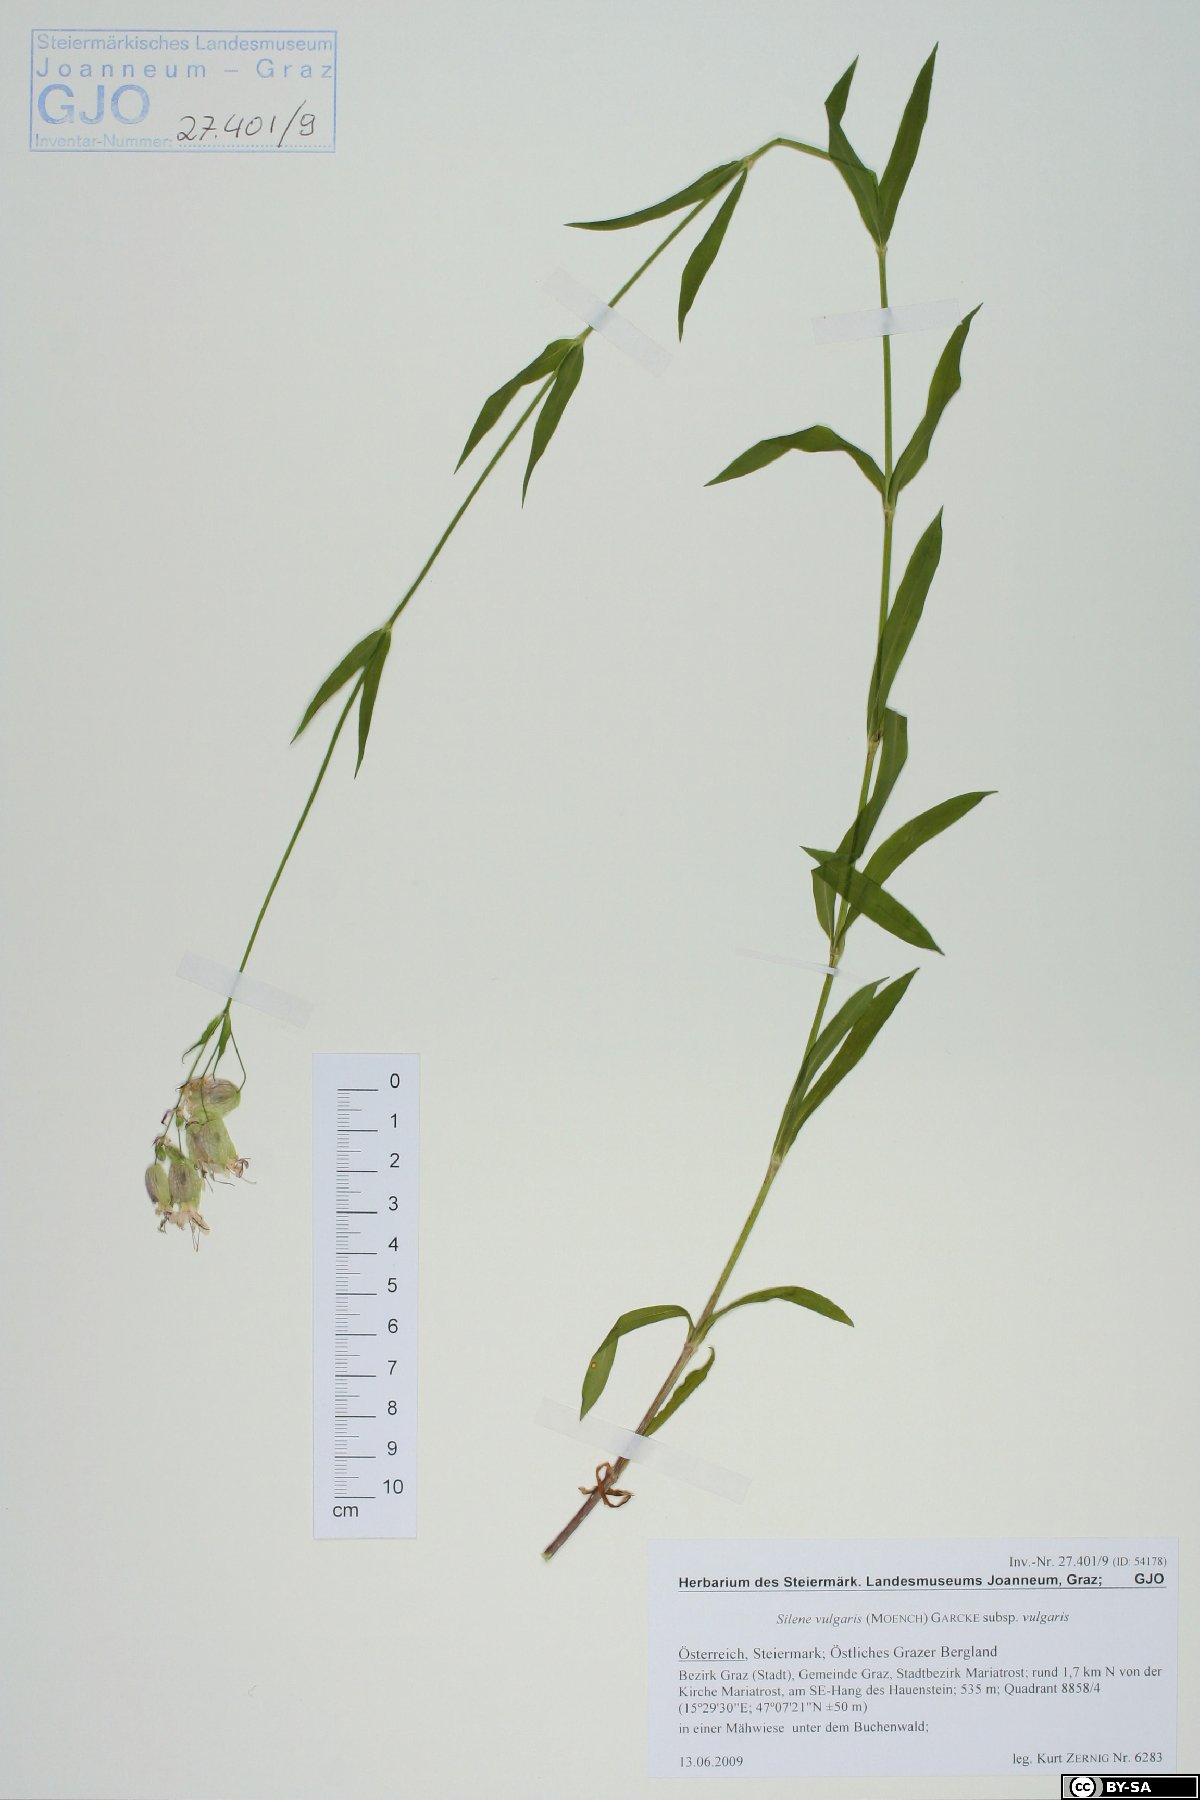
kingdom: Plantae
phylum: Tracheophyta
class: Magnoliopsida
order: Caryophyllales
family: Caryophyllaceae
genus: Silene
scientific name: Silene vulgaris
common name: Bladder campion
